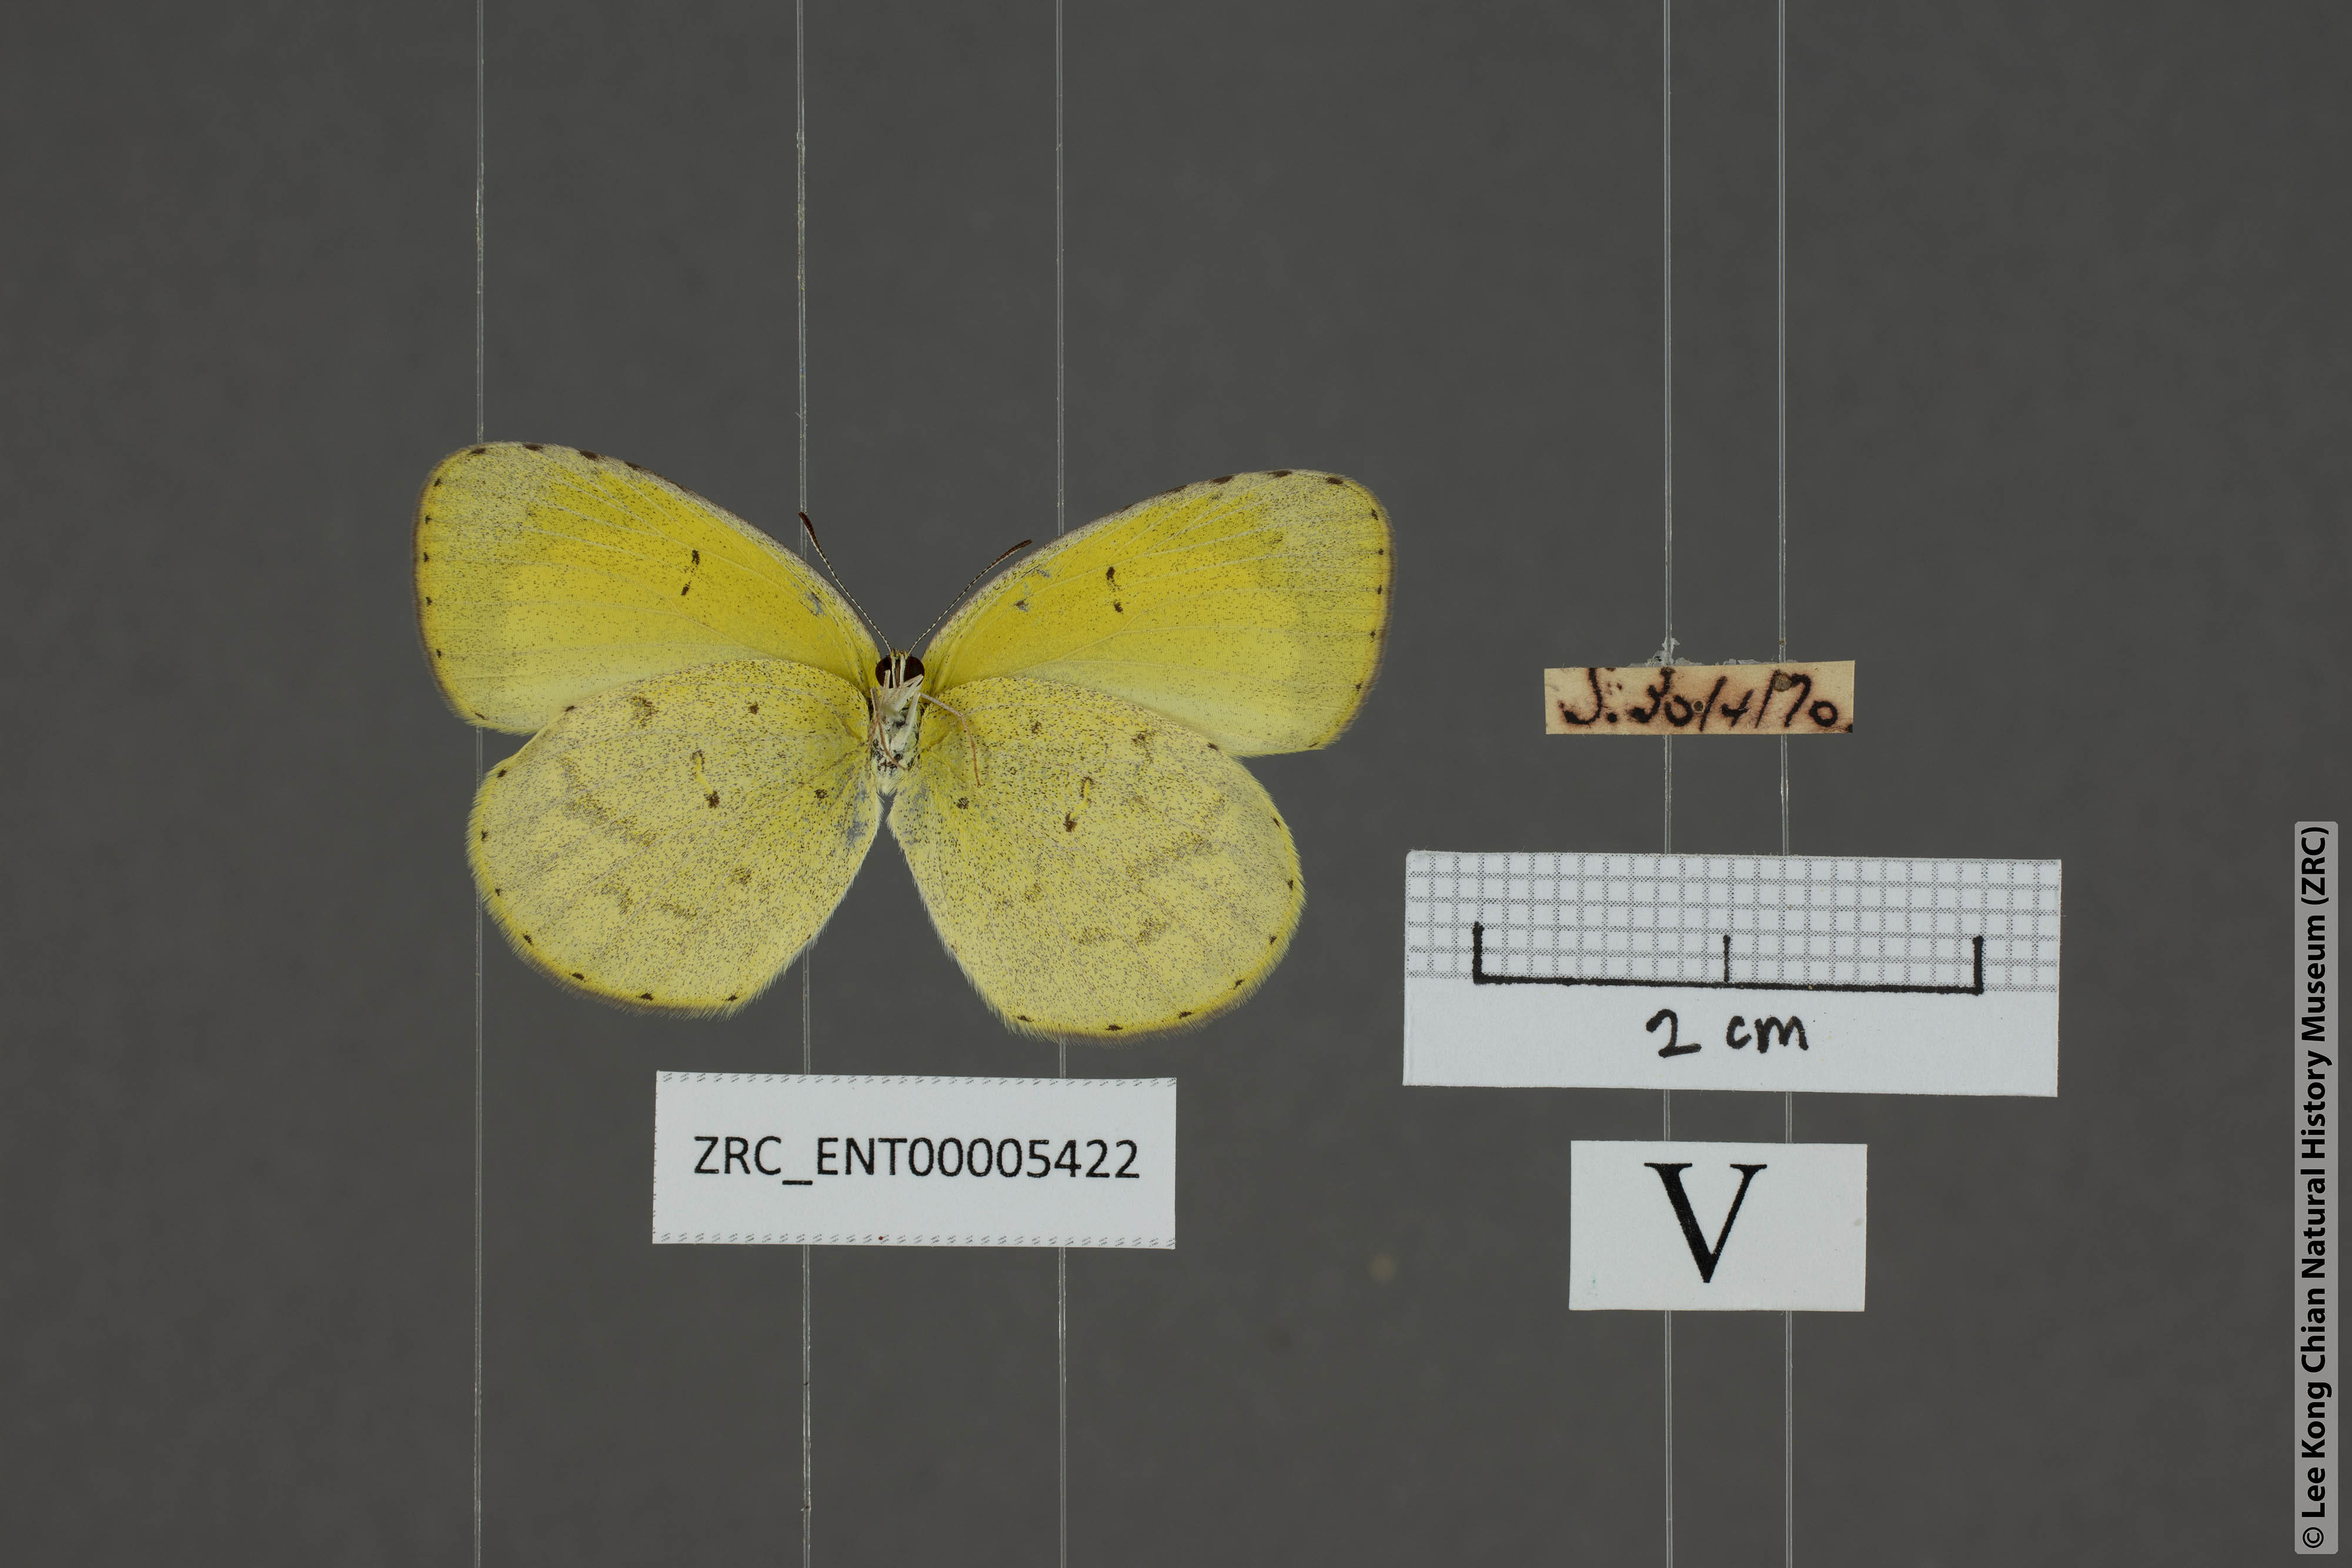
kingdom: Animalia
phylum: Arthropoda
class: Insecta
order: Lepidoptera
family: Pieridae
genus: Eurema
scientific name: Eurema brigitta
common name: Small grass yellow
